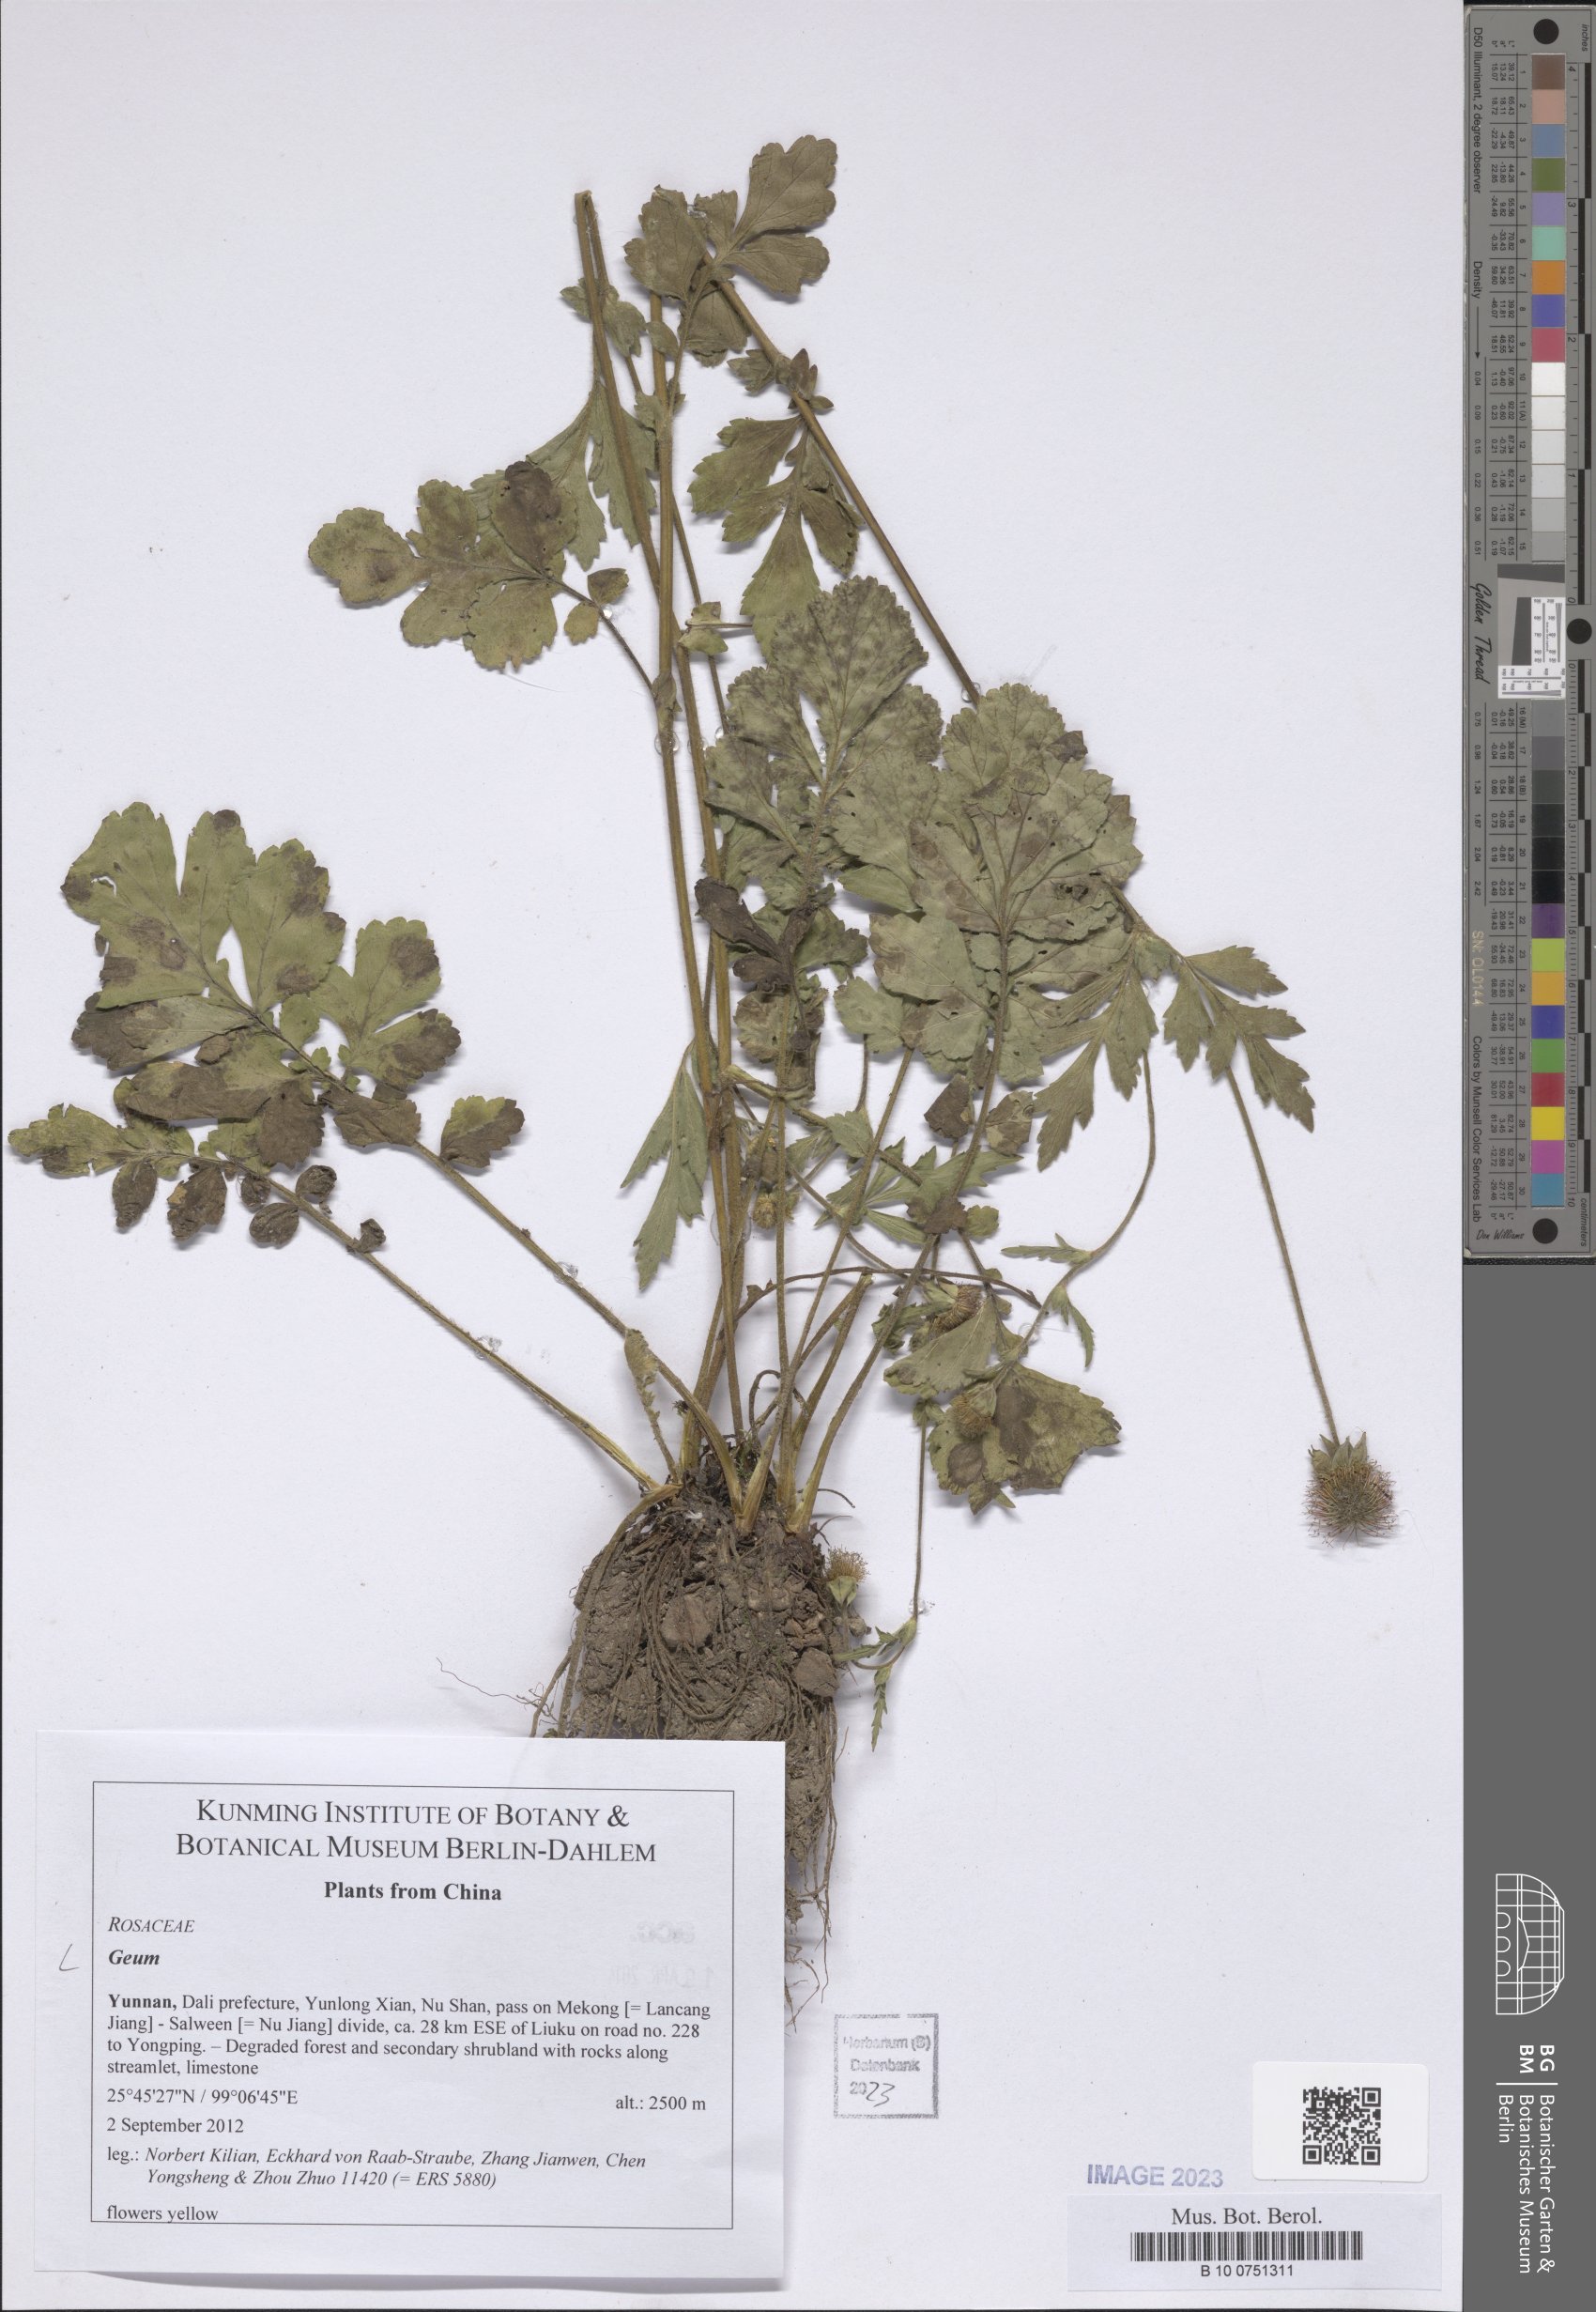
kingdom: Plantae
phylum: Tracheophyta
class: Magnoliopsida
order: Rosales
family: Rosaceae
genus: Geum
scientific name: Geum
